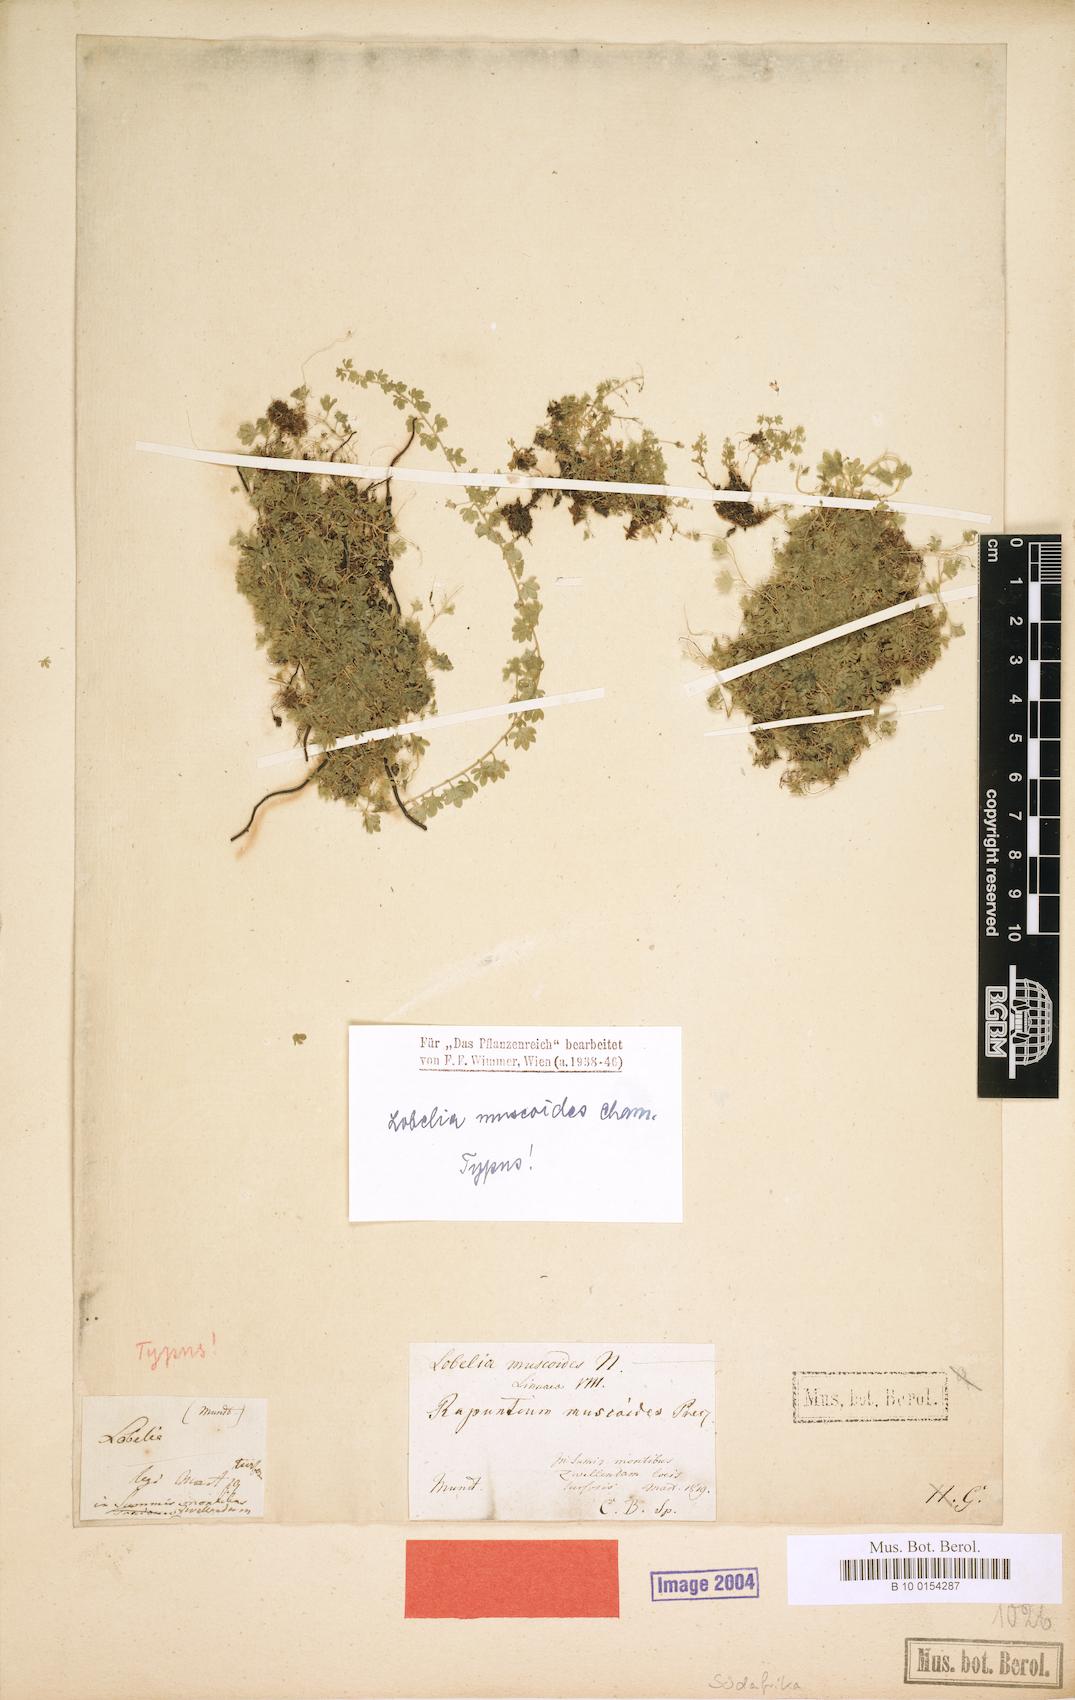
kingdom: Plantae
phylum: Tracheophyta
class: Magnoliopsida
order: Asterales
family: Campanulaceae
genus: Lobelia
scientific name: Lobelia muscoides
